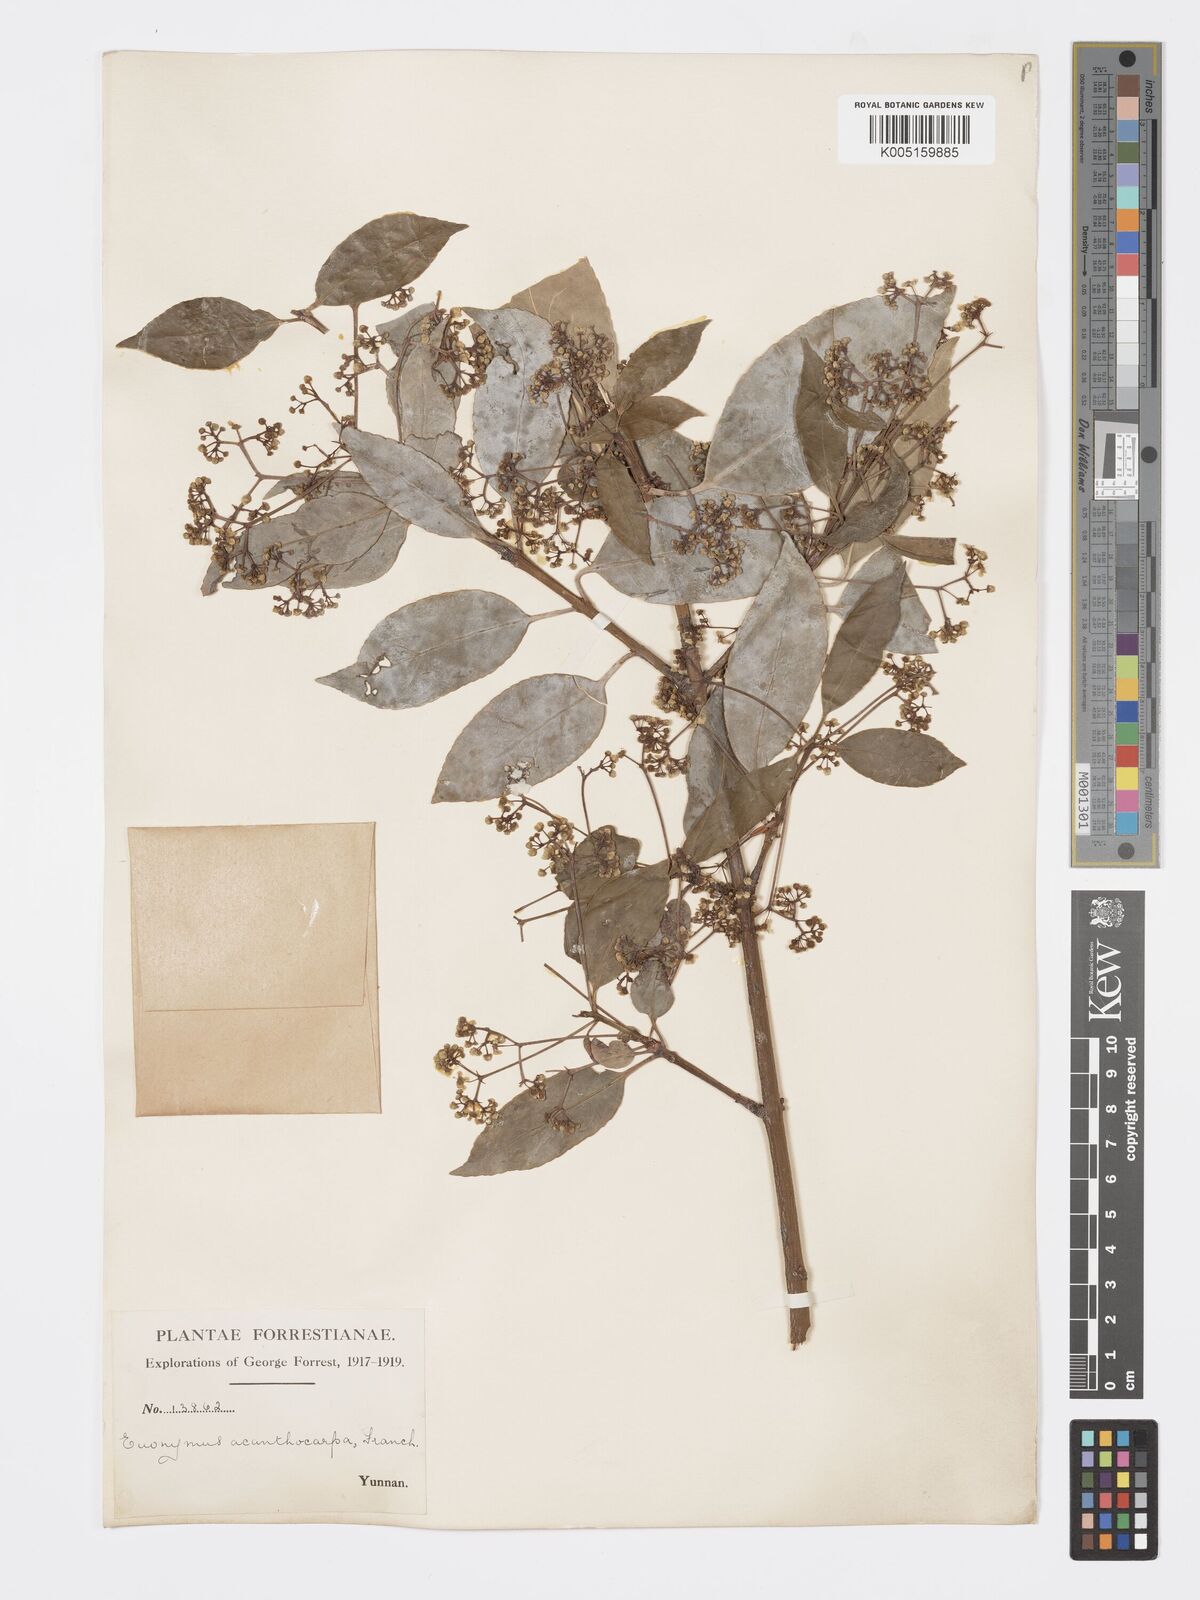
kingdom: Plantae
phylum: Tracheophyta
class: Magnoliopsida
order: Celastrales
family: Celastraceae
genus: Euonymus
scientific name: Euonymus acanthocarpus
